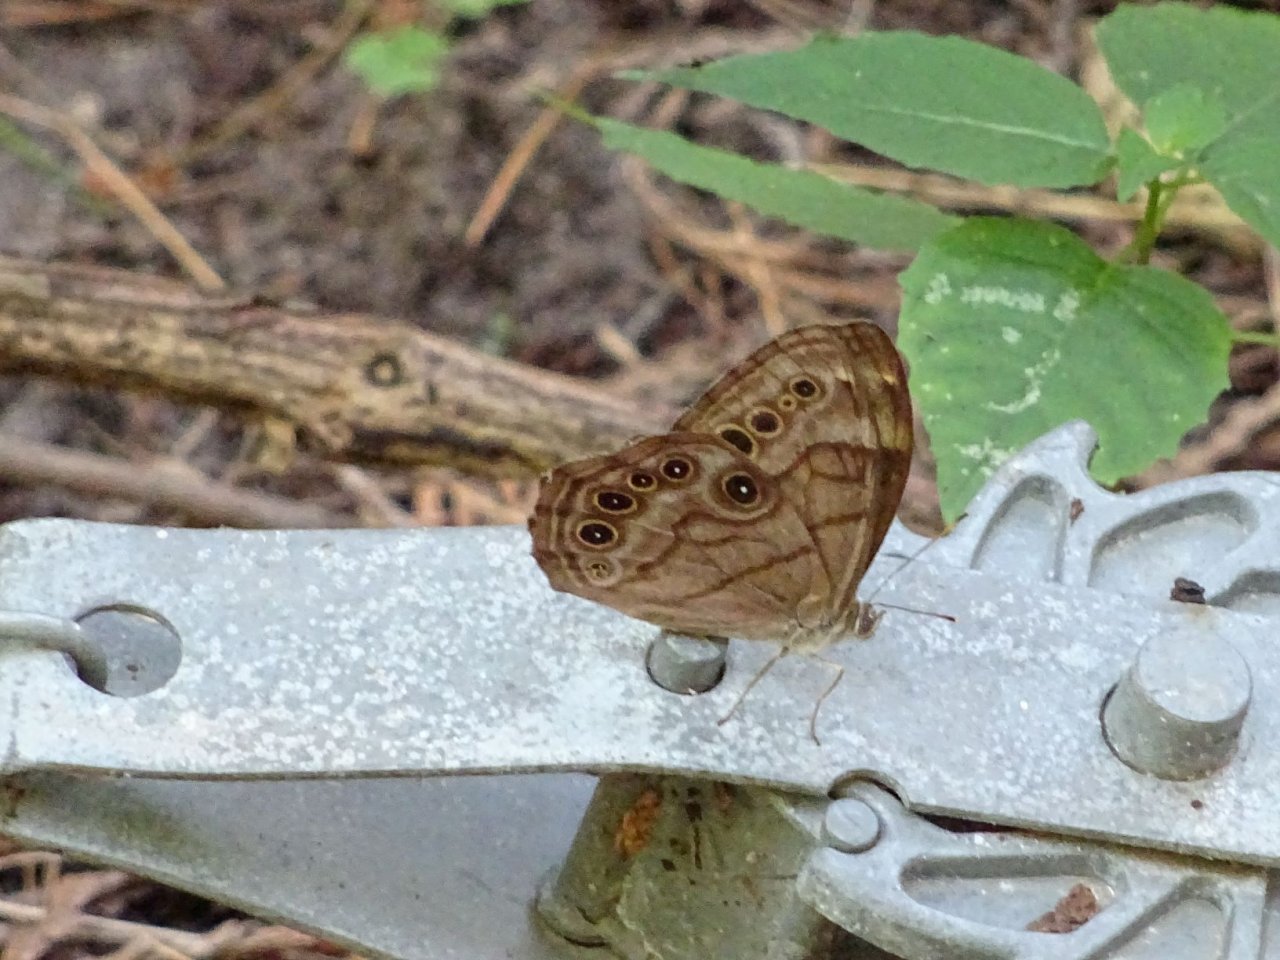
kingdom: Animalia
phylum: Arthropoda
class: Insecta
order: Lepidoptera
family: Nymphalidae
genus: Lethe
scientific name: Lethe anthedon
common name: Northern Pearly-Eye
